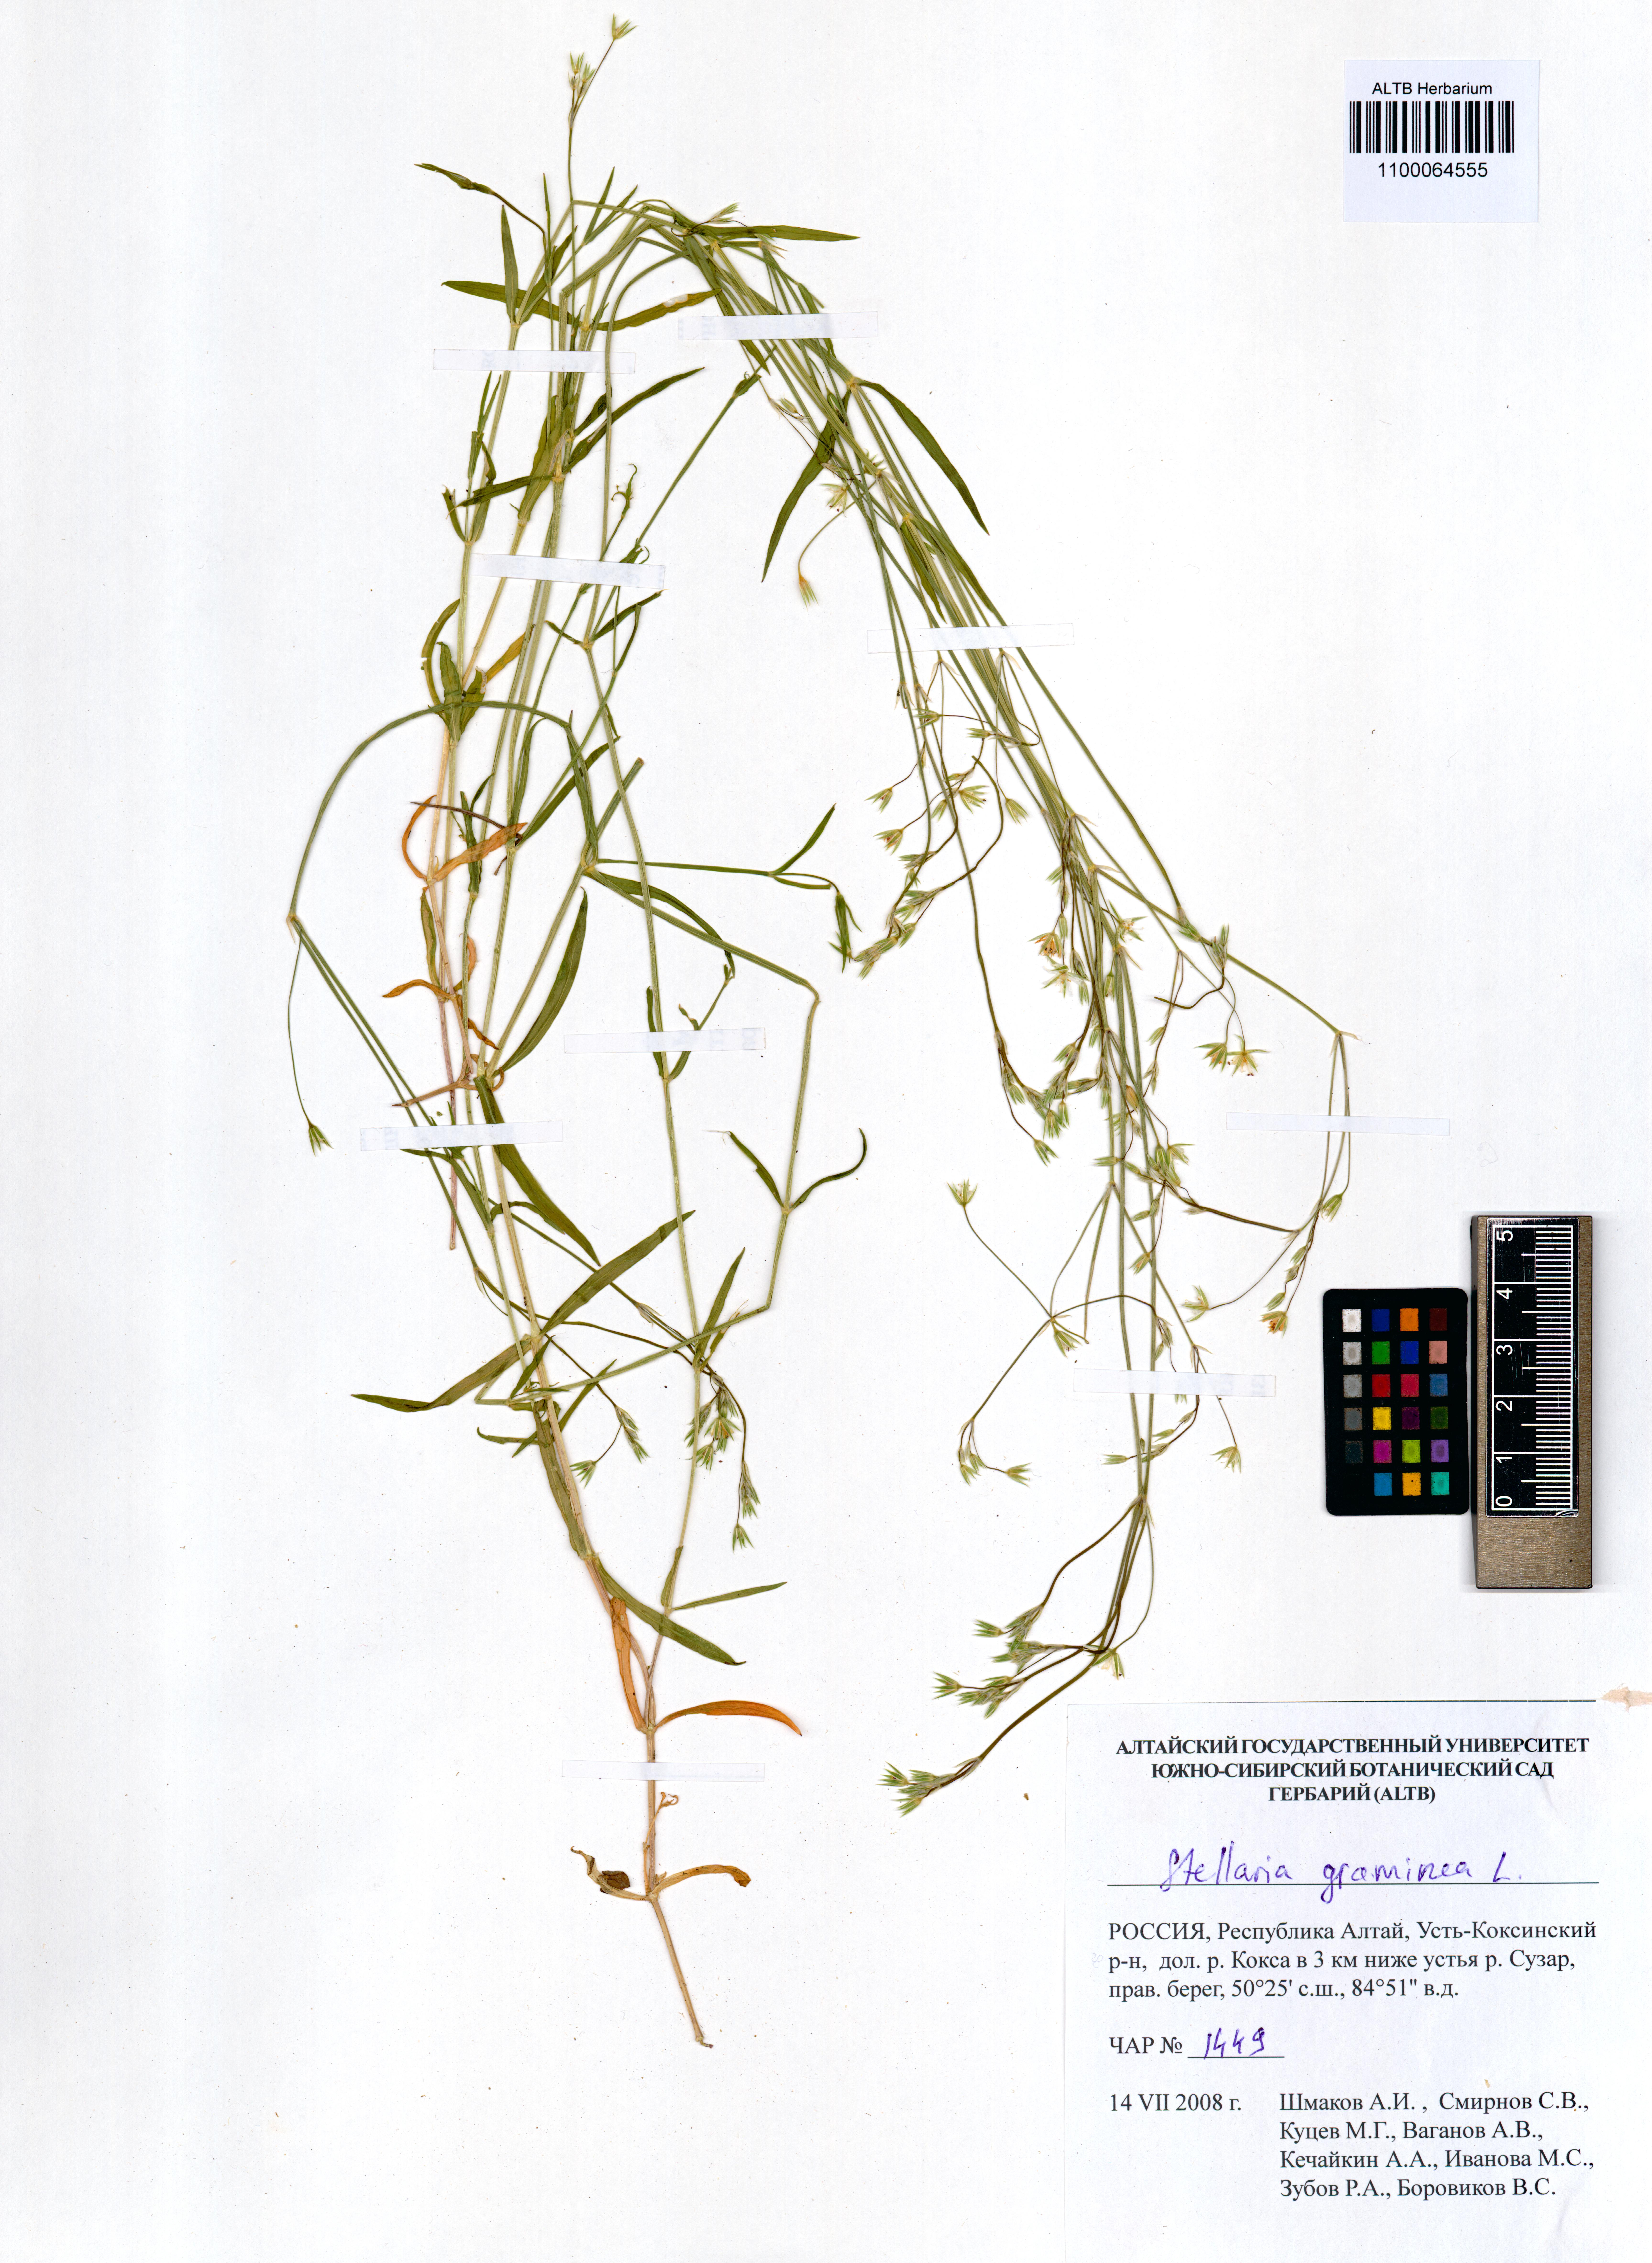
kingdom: Plantae
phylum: Tracheophyta
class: Magnoliopsida
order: Caryophyllales
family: Caryophyllaceae
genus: Stellaria
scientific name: Stellaria graminea
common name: Grass-like starwort
